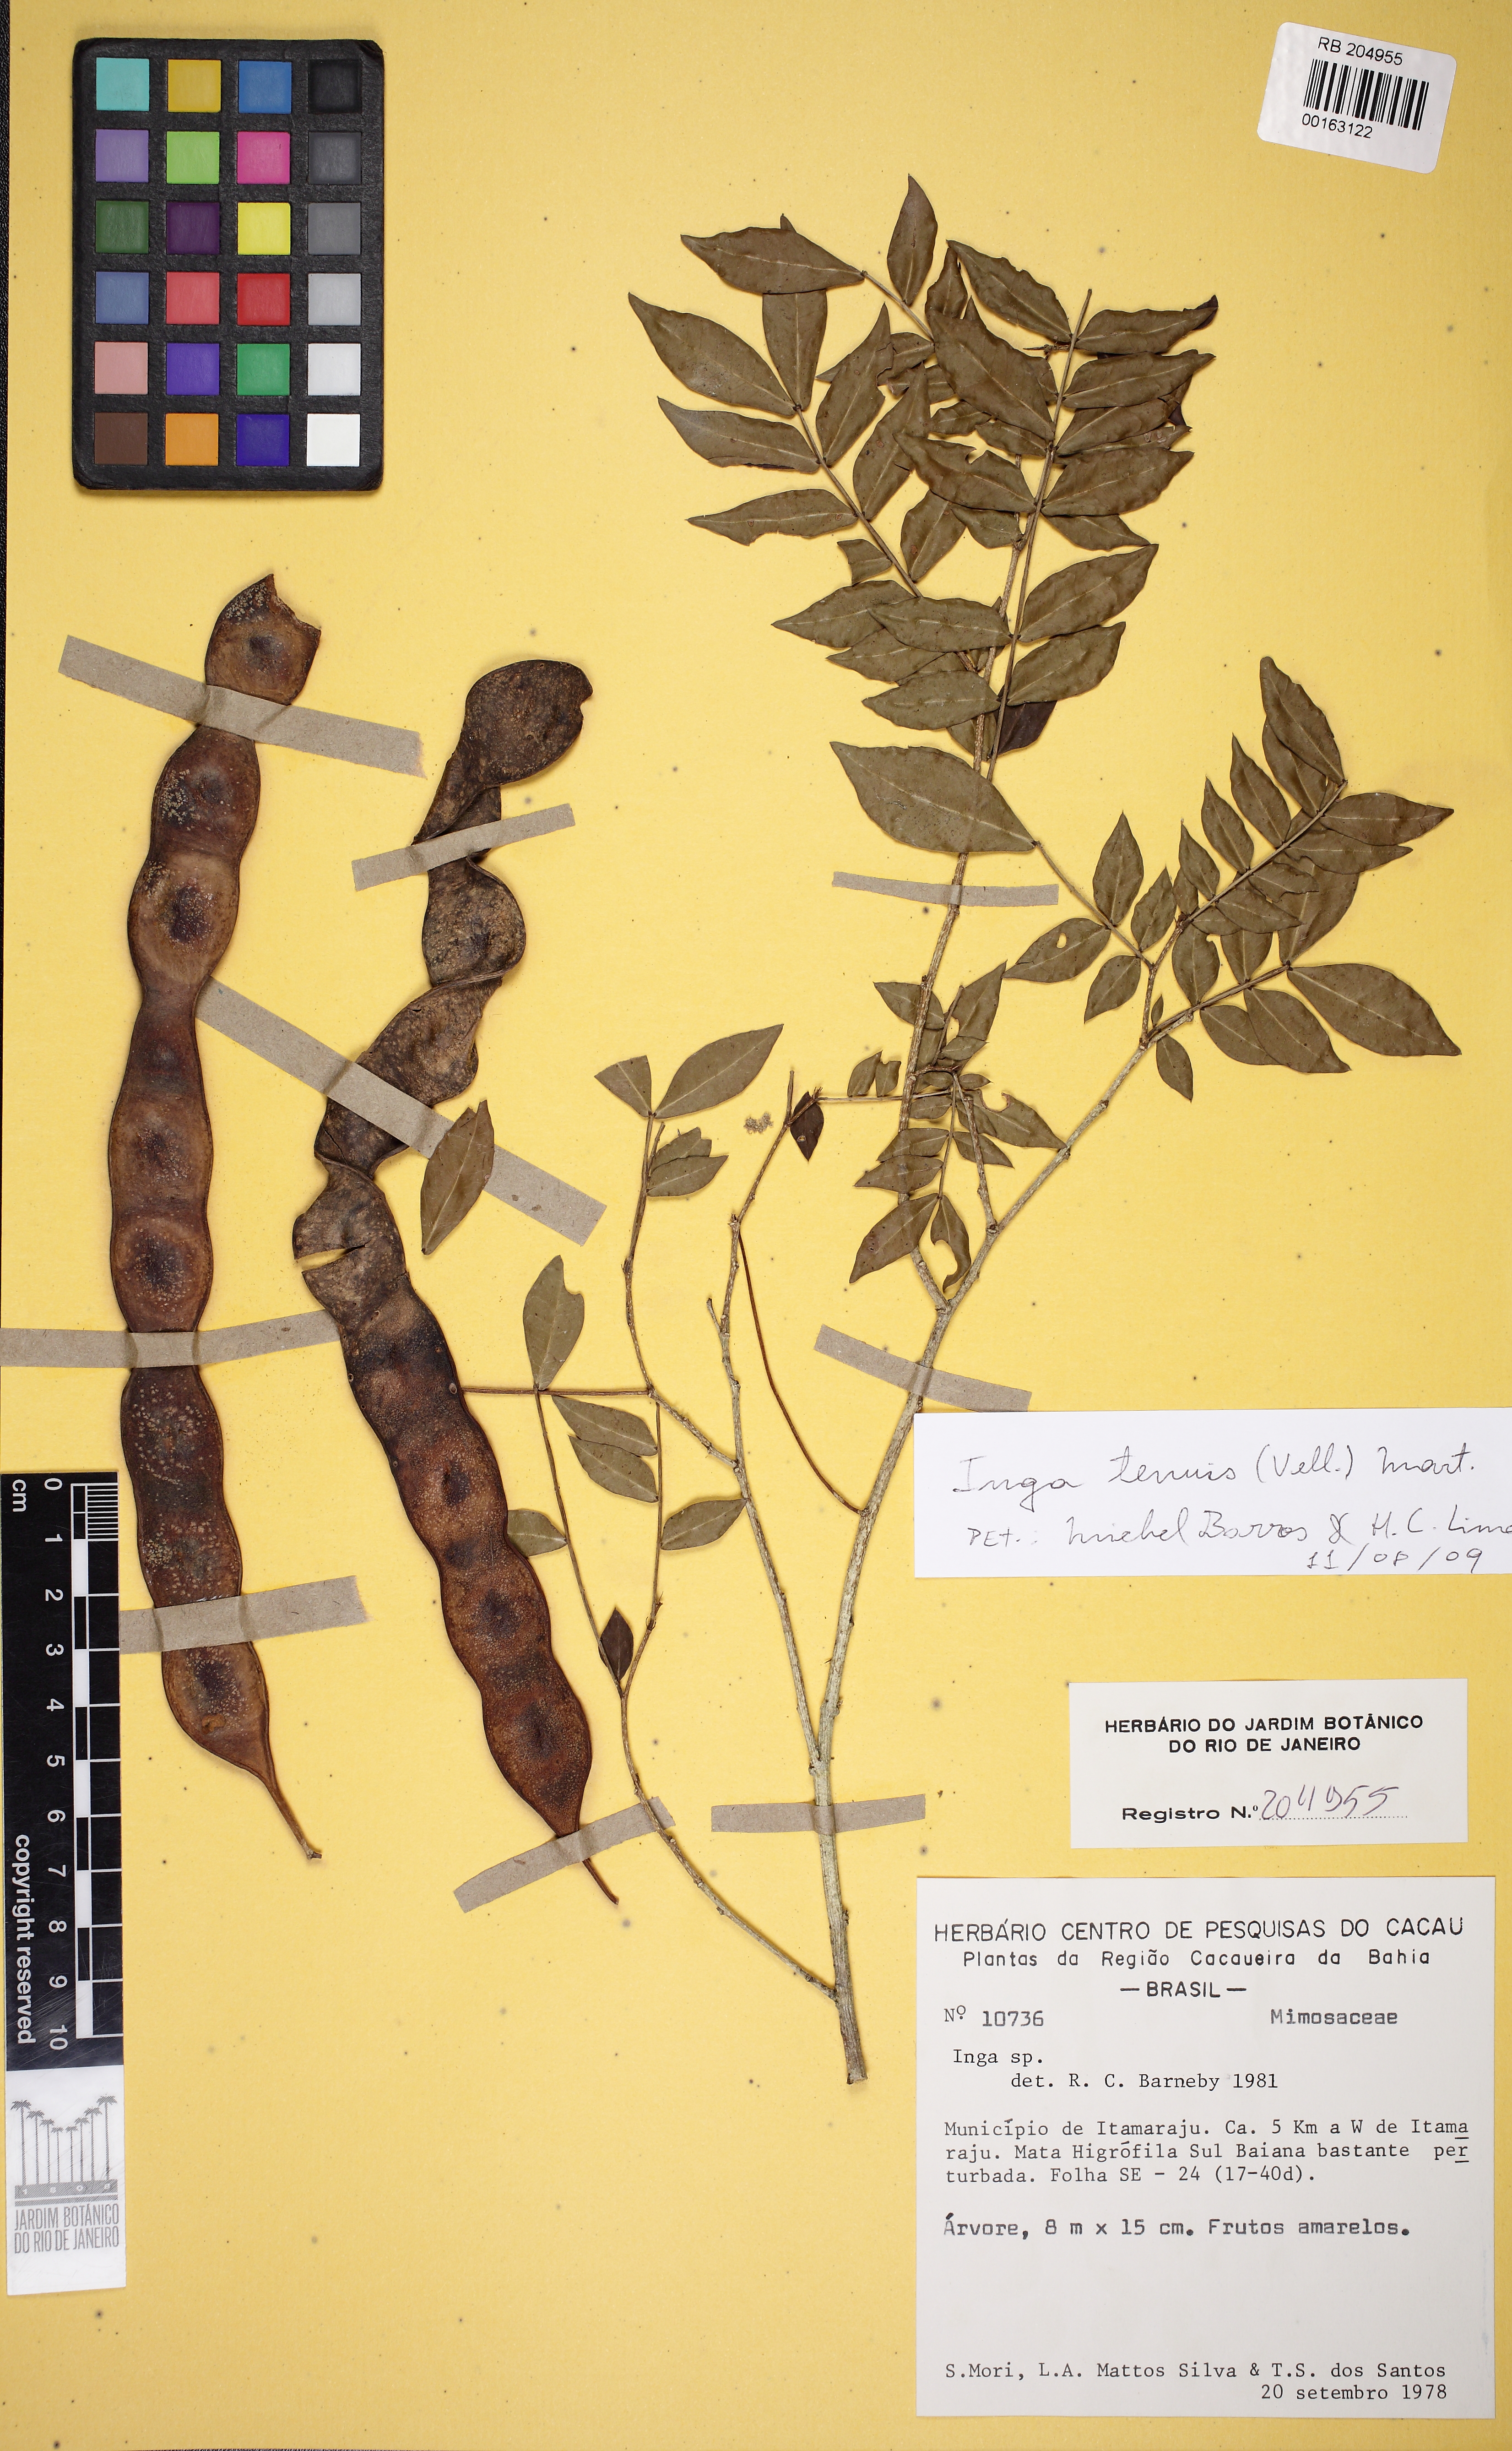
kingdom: Plantae
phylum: Tracheophyta
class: Magnoliopsida
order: Fabales
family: Fabaceae
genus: Inga
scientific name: Inga tenuis
